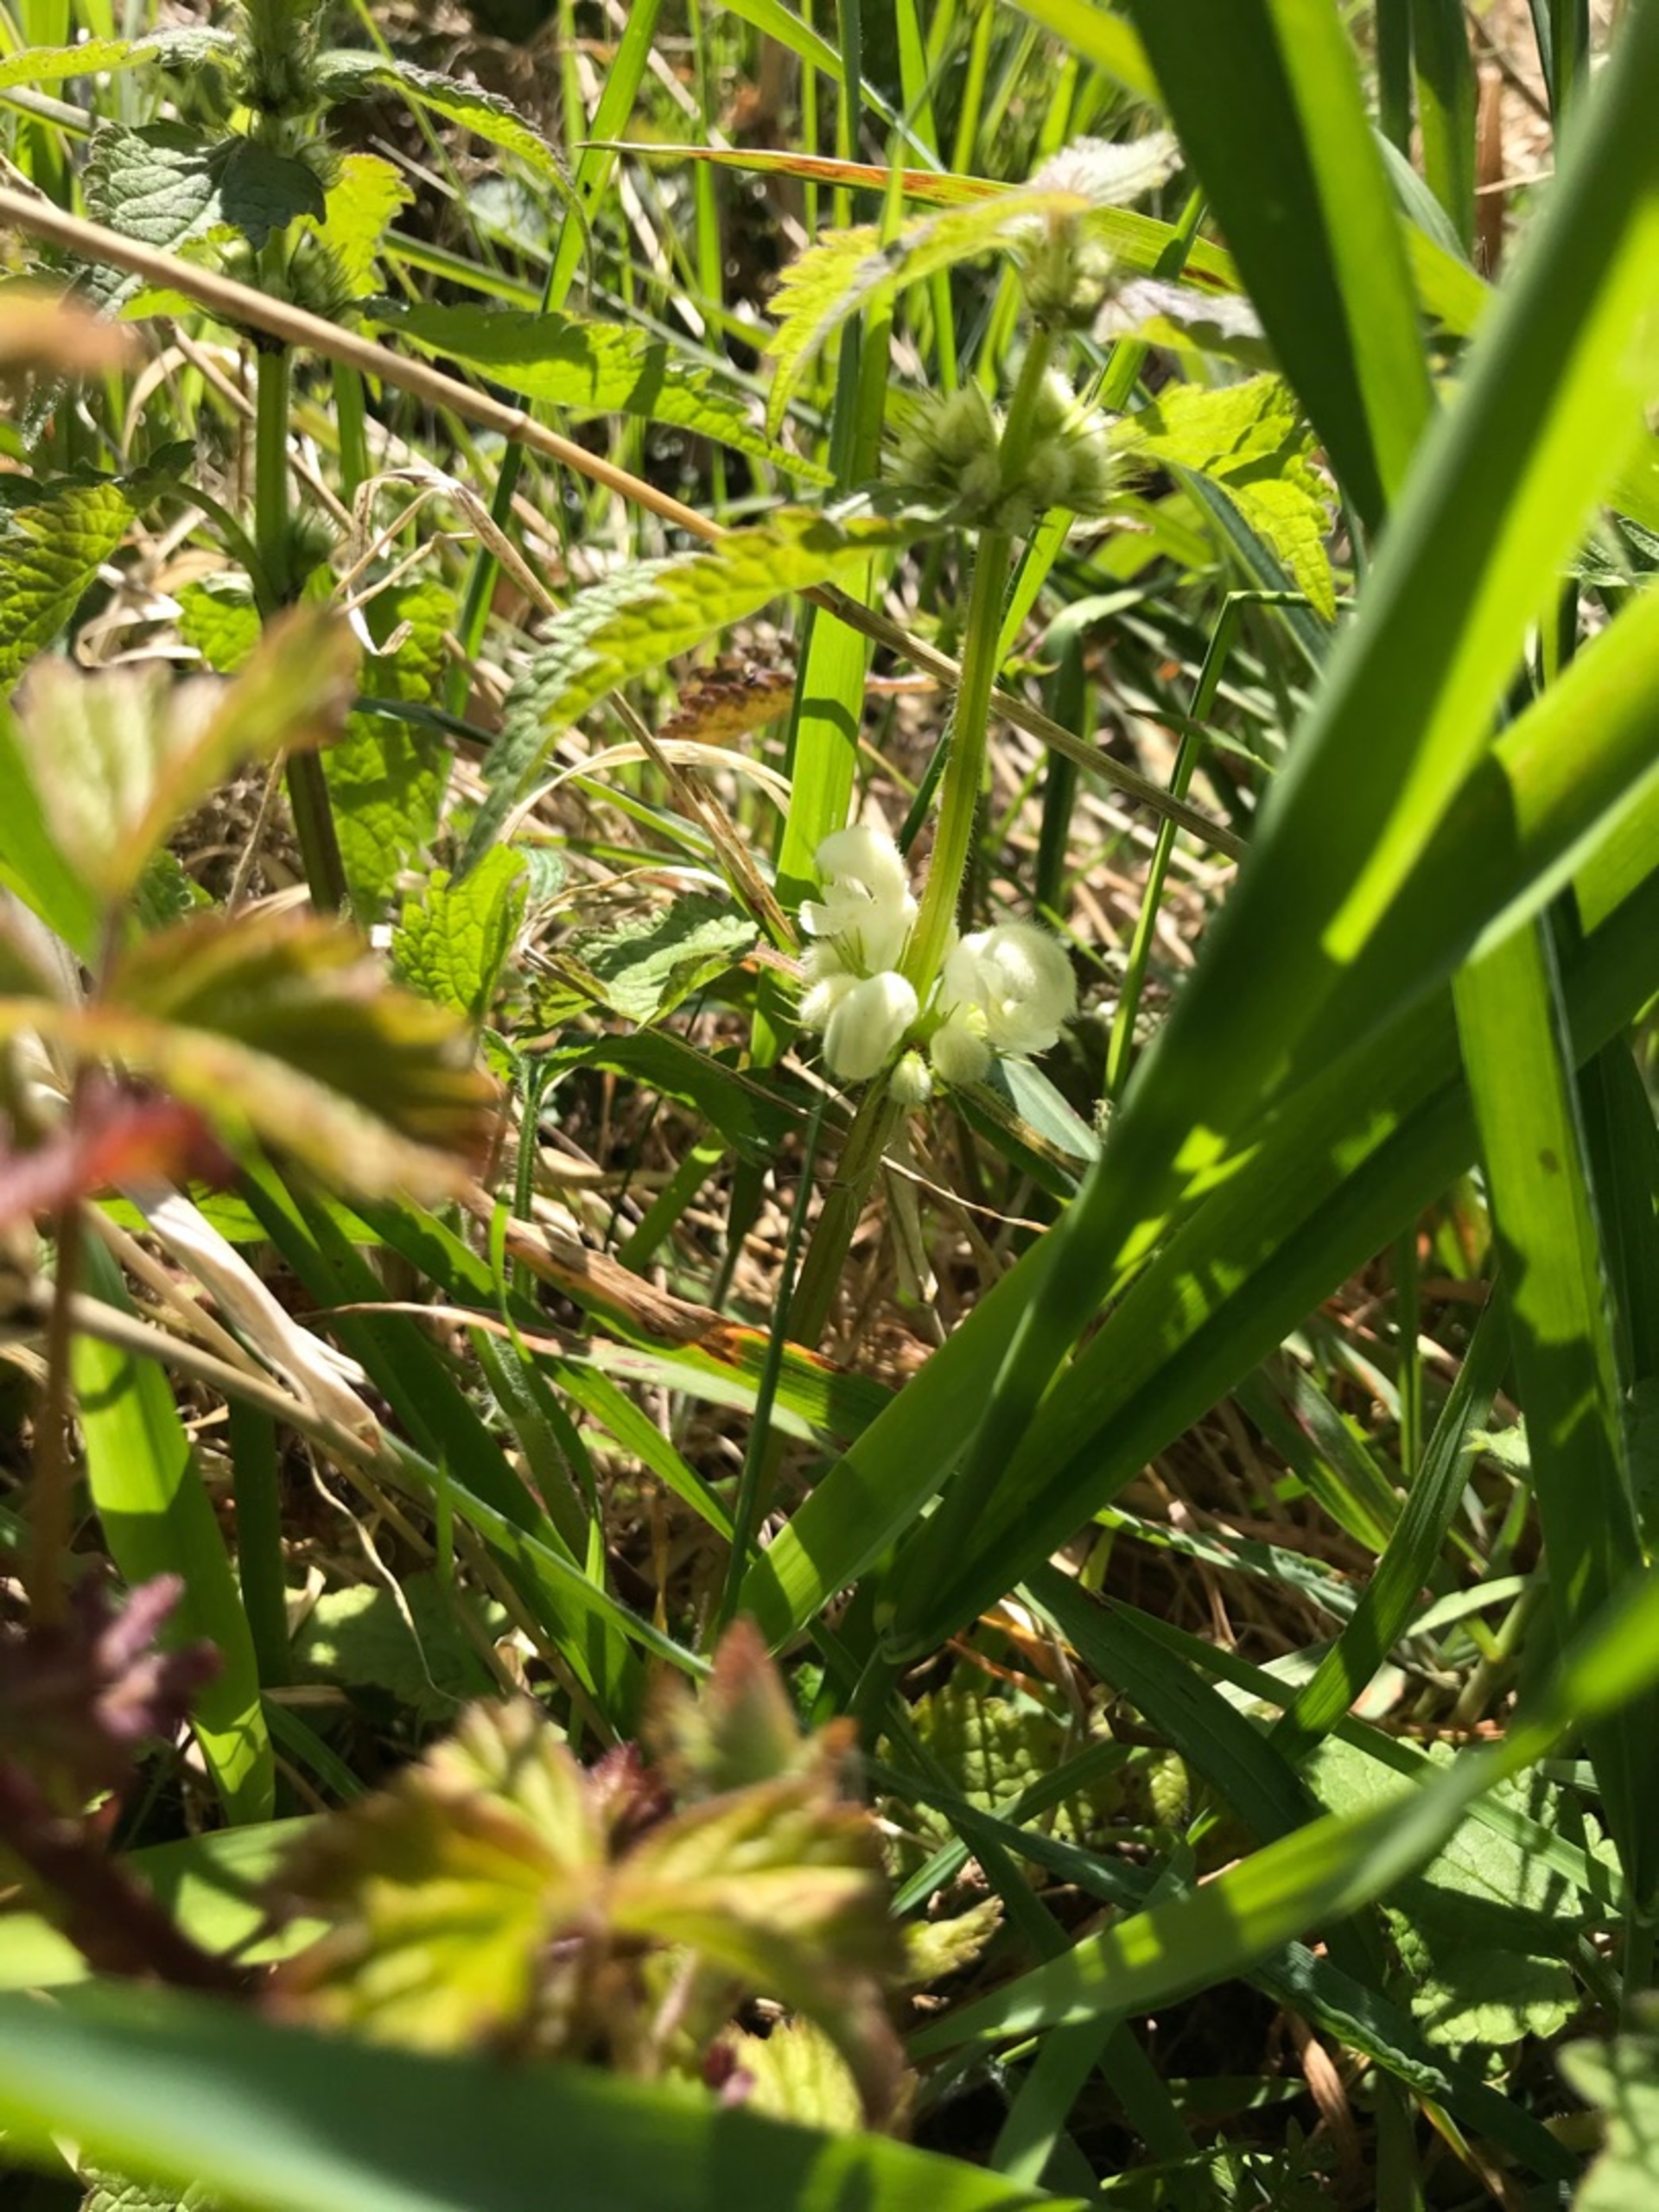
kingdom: Plantae
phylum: Tracheophyta
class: Magnoliopsida
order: Lamiales
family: Lamiaceae
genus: Lamium
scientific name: Lamium album
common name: Døvnælde
